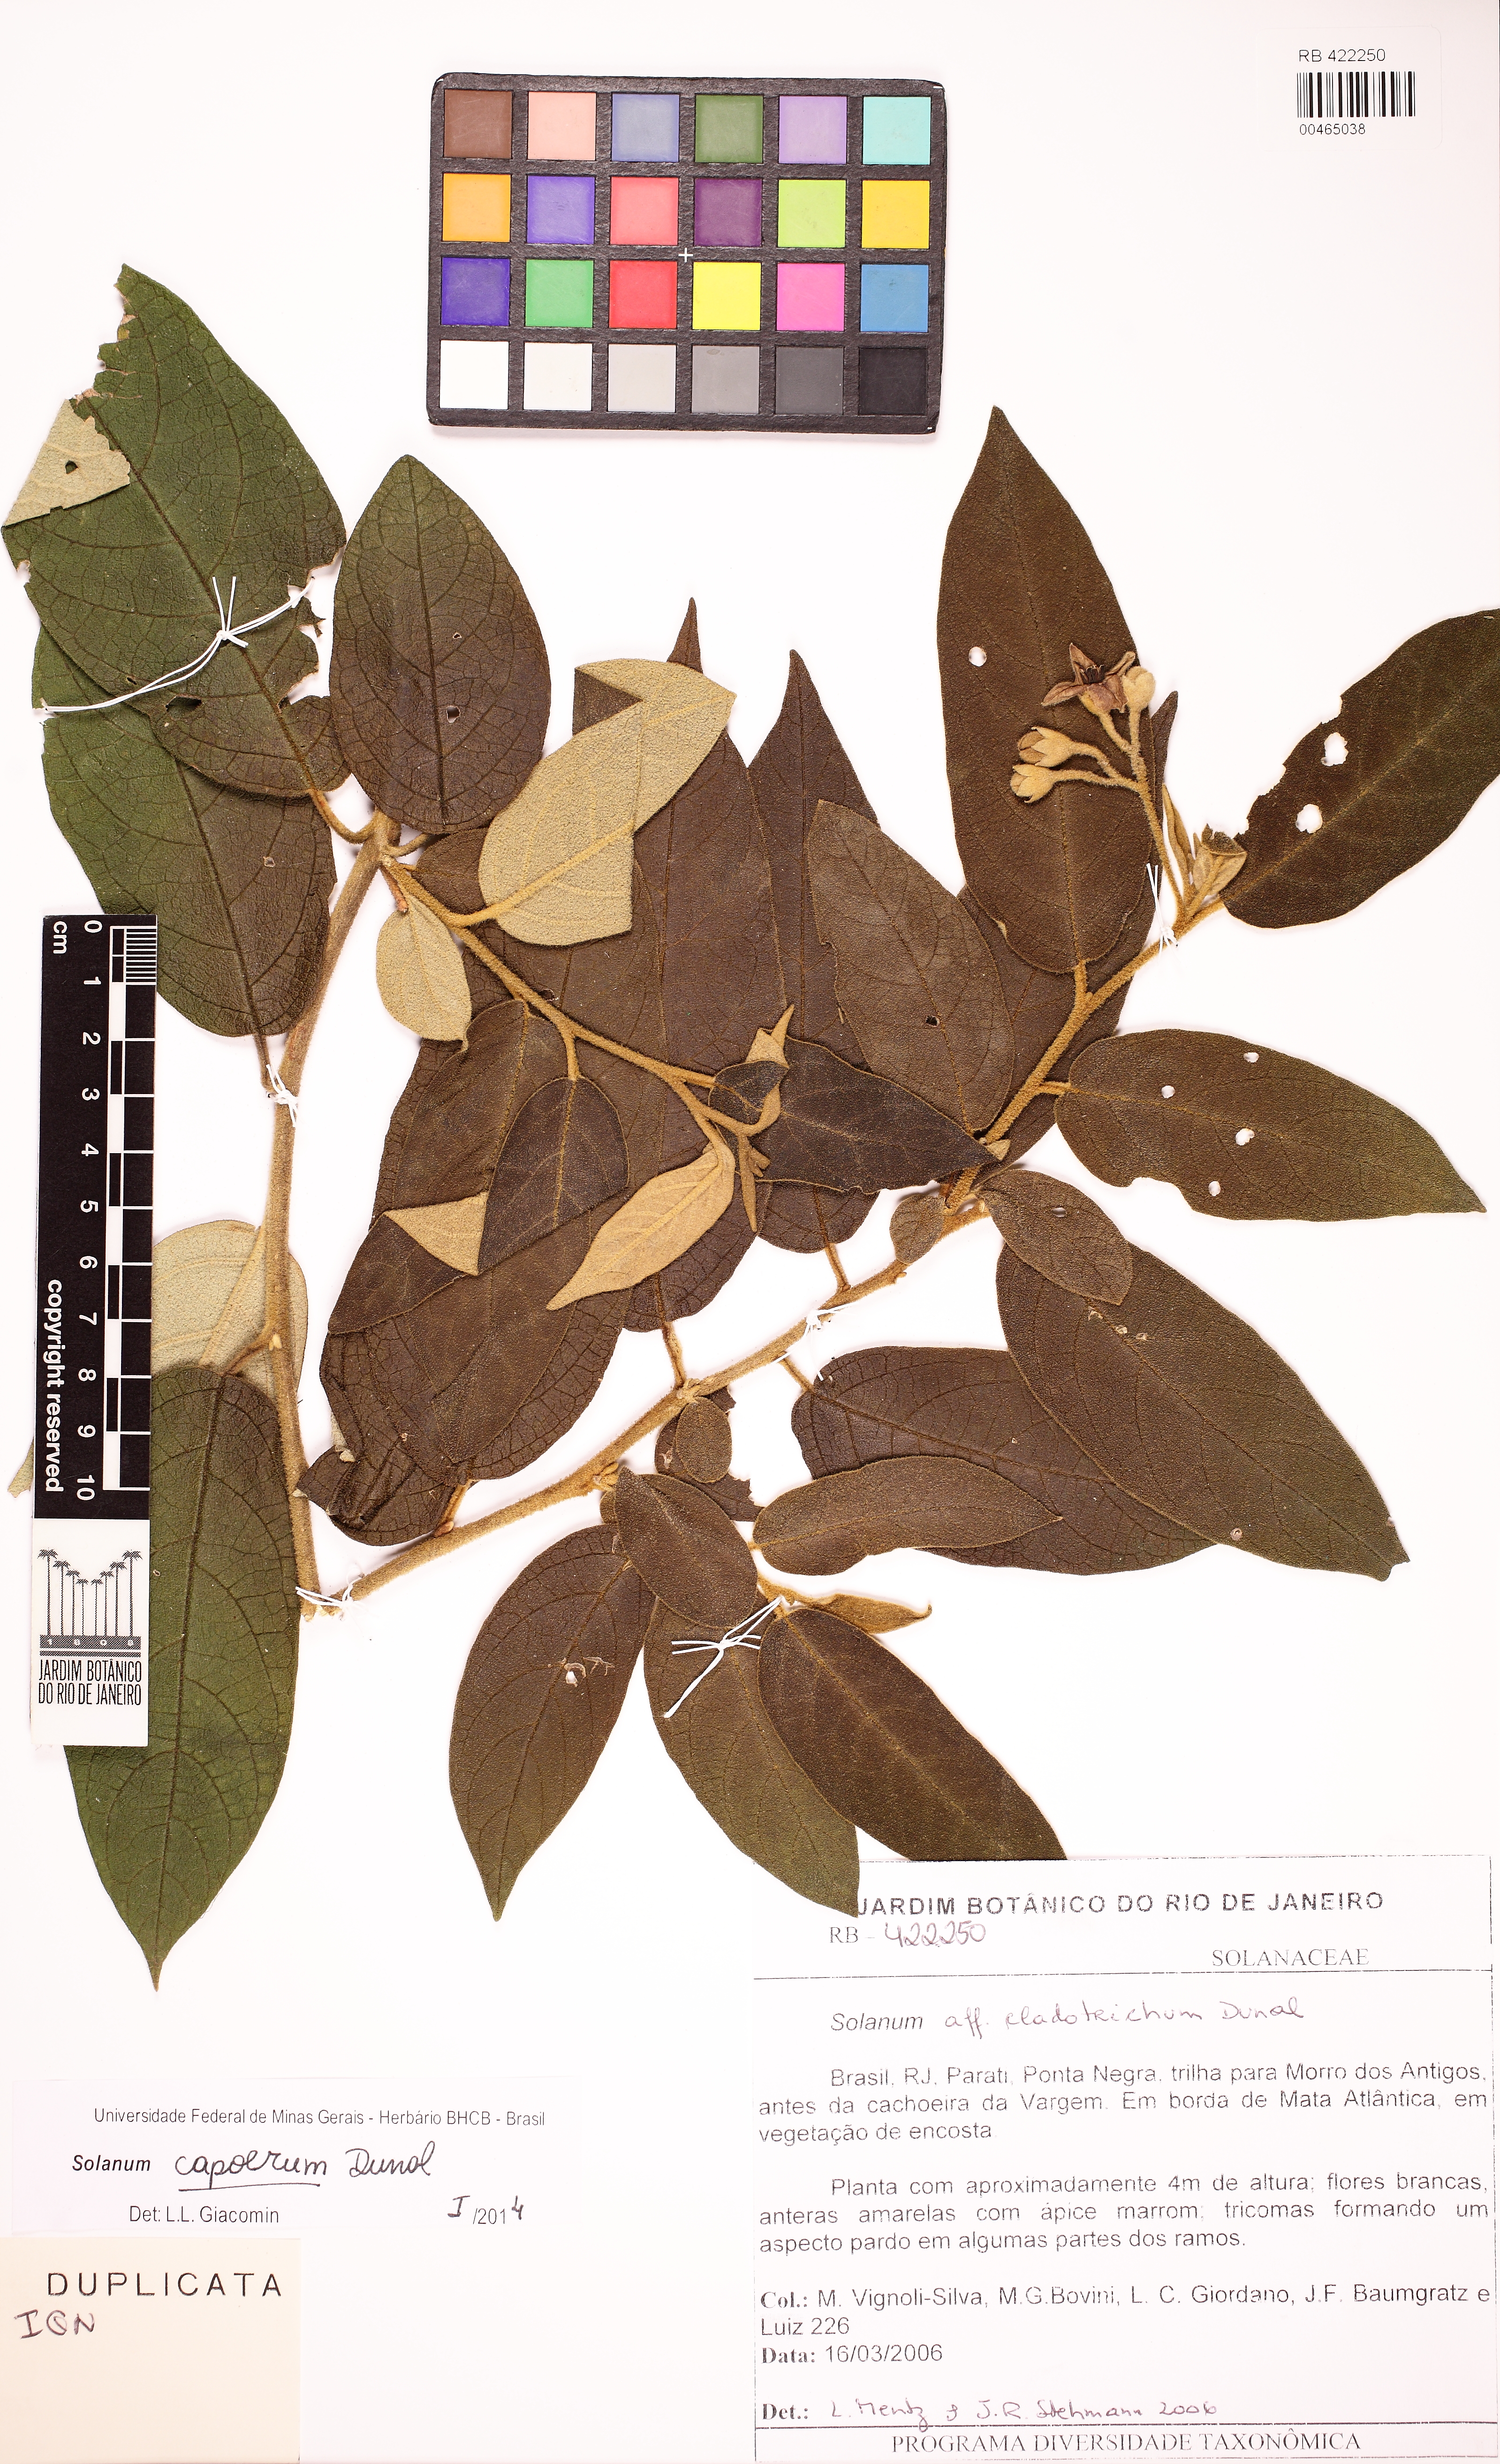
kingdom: Plantae
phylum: Tracheophyta
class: Magnoliopsida
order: Solanales
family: Solanaceae
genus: Solanum
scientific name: Solanum rhytidoandrum
